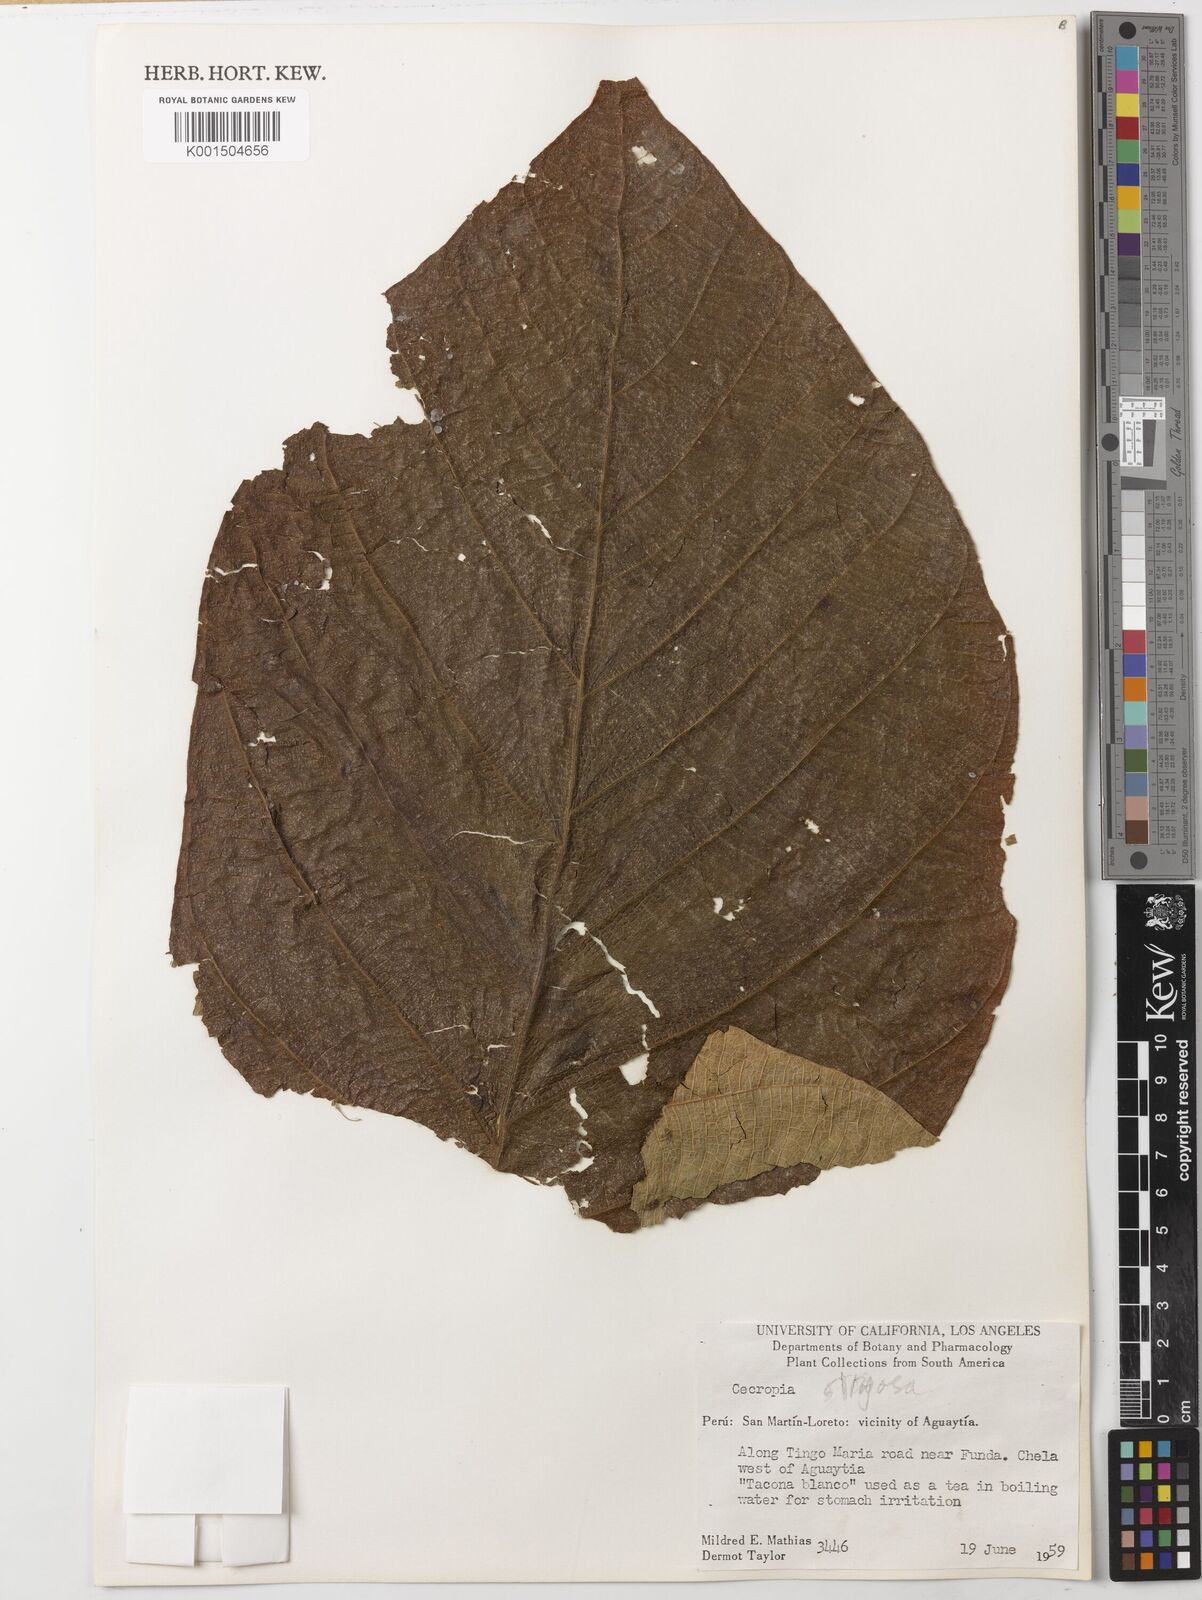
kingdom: Plantae
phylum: Tracheophyta
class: Magnoliopsida
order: Rosales
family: Urticaceae
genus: Cecropia
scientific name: Cecropia tacuna
